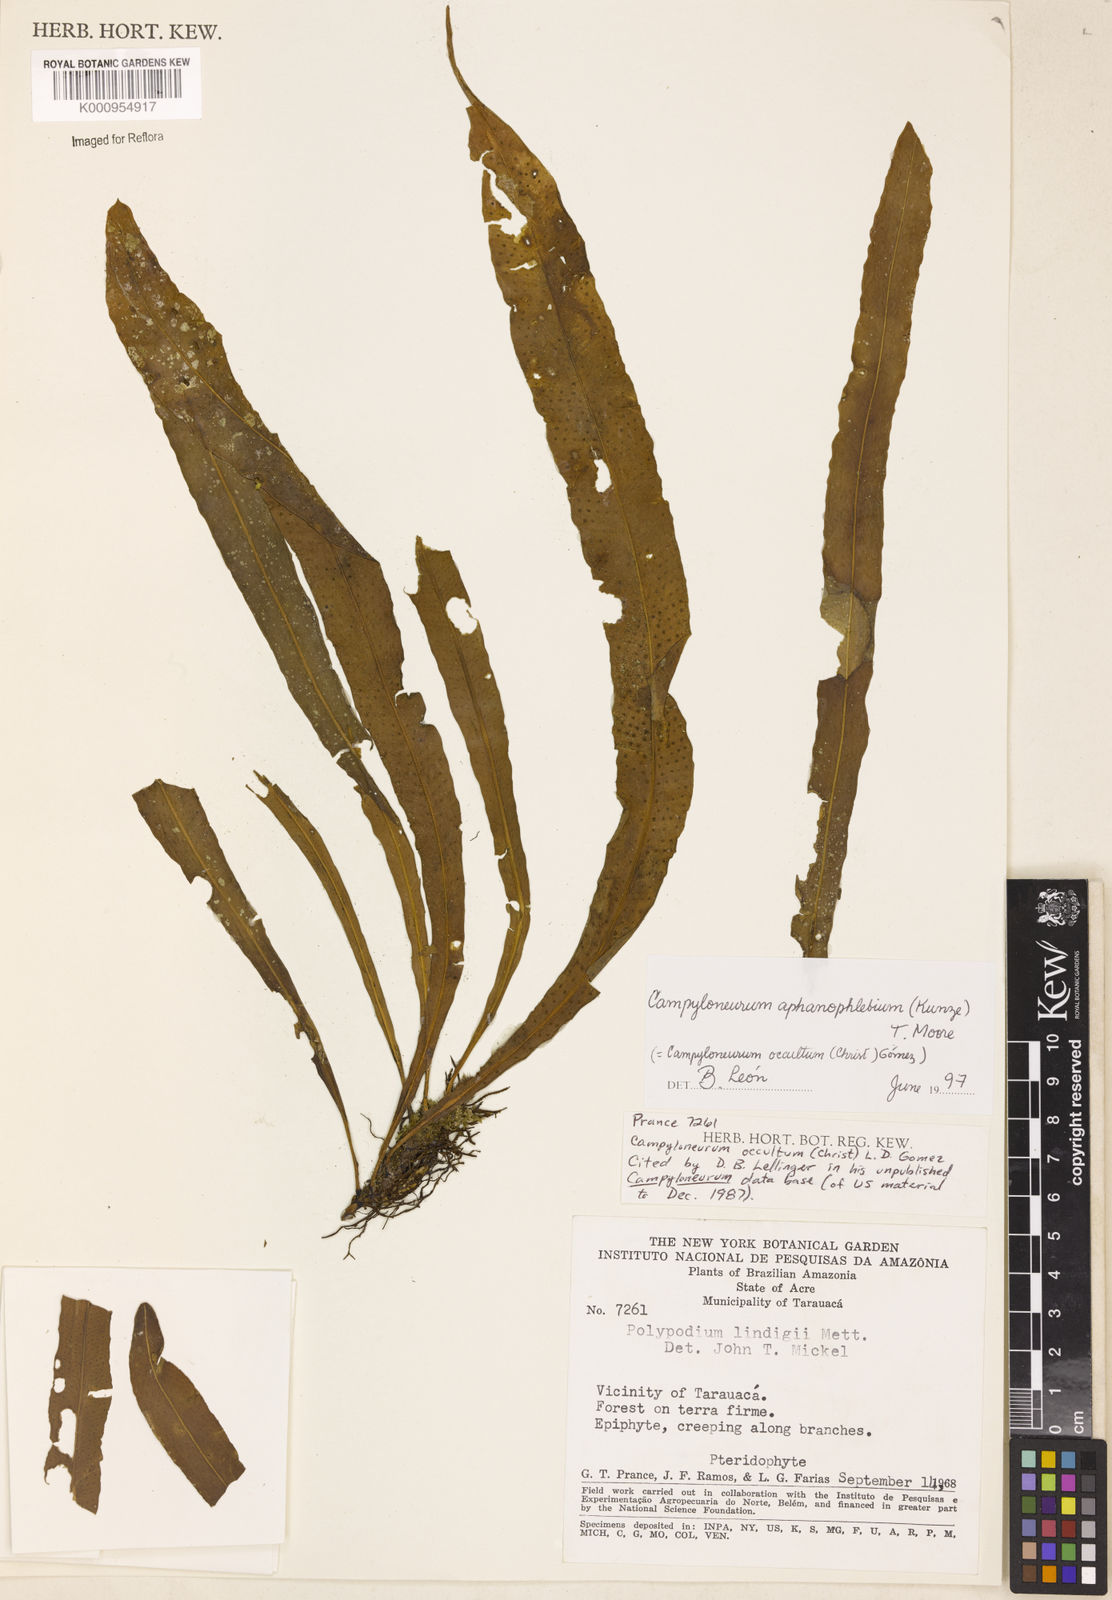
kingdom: Plantae
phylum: Tracheophyta
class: Polypodiopsida
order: Polypodiales
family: Polypodiaceae
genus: Campyloneurum
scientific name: Campyloneurum aphanophlebium
